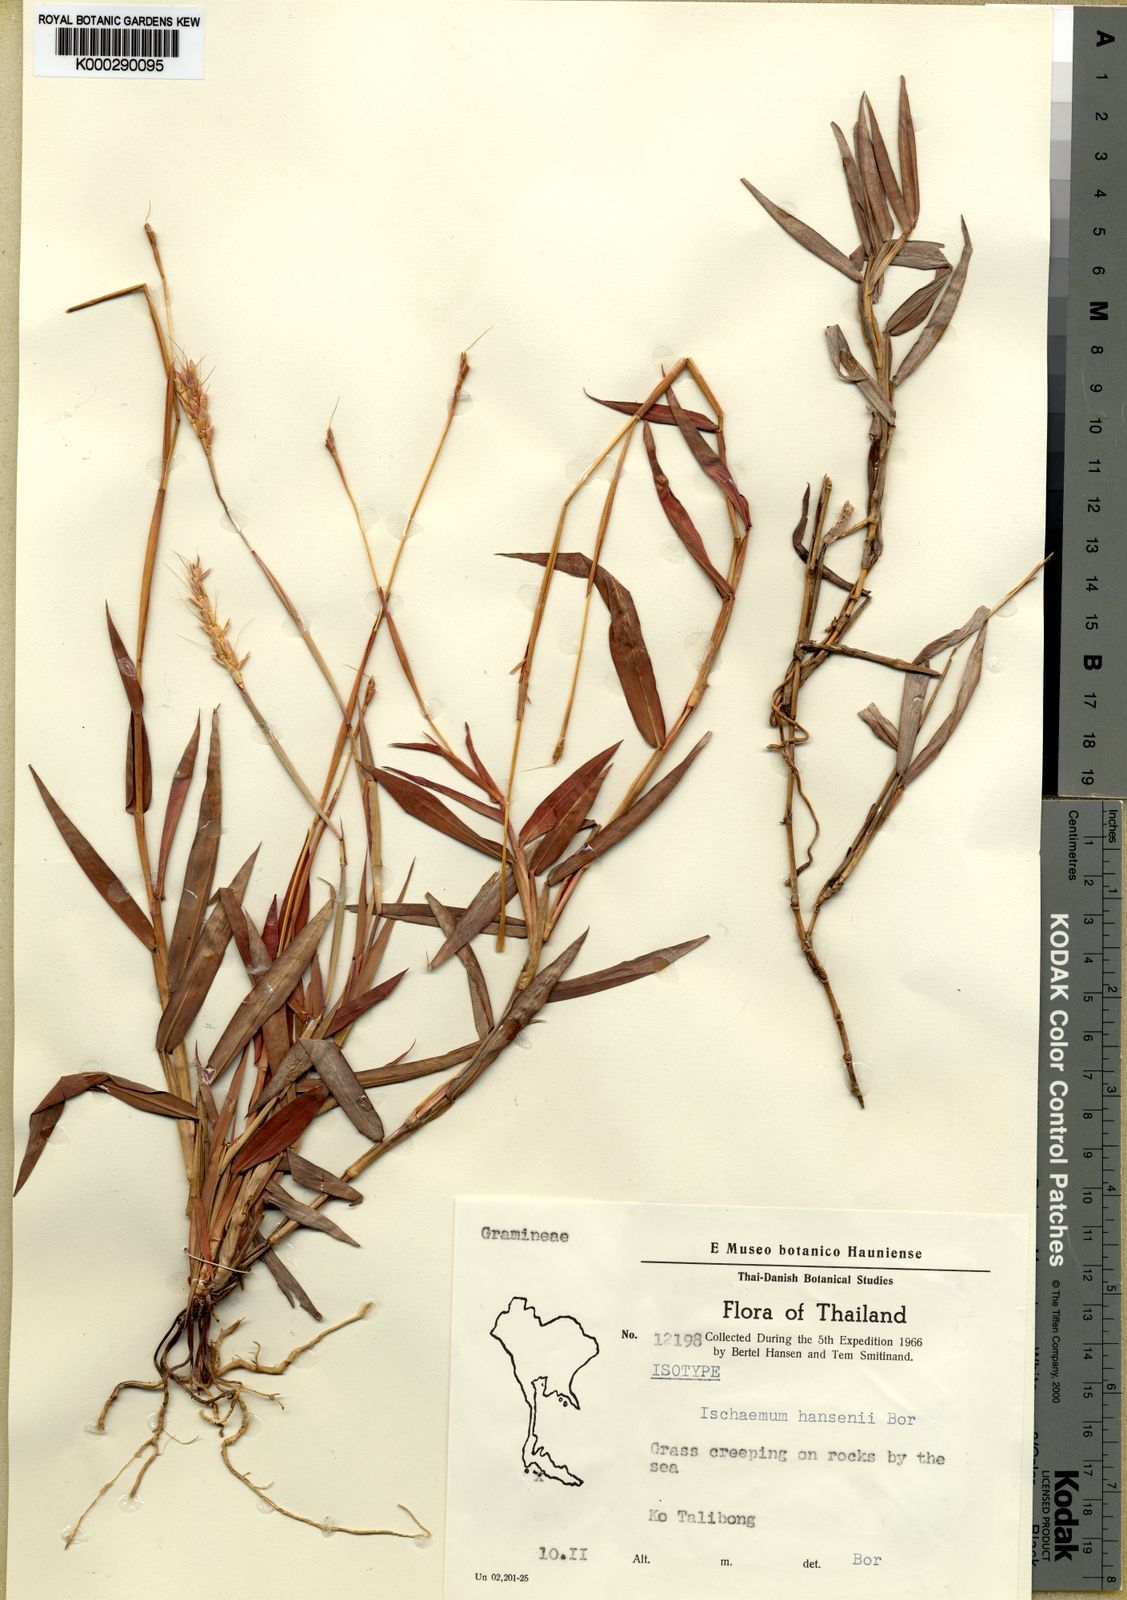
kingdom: Plantae
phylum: Tracheophyta
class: Liliopsida
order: Poales
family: Poaceae
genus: Ischaemum
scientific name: Ischaemum hansenii
